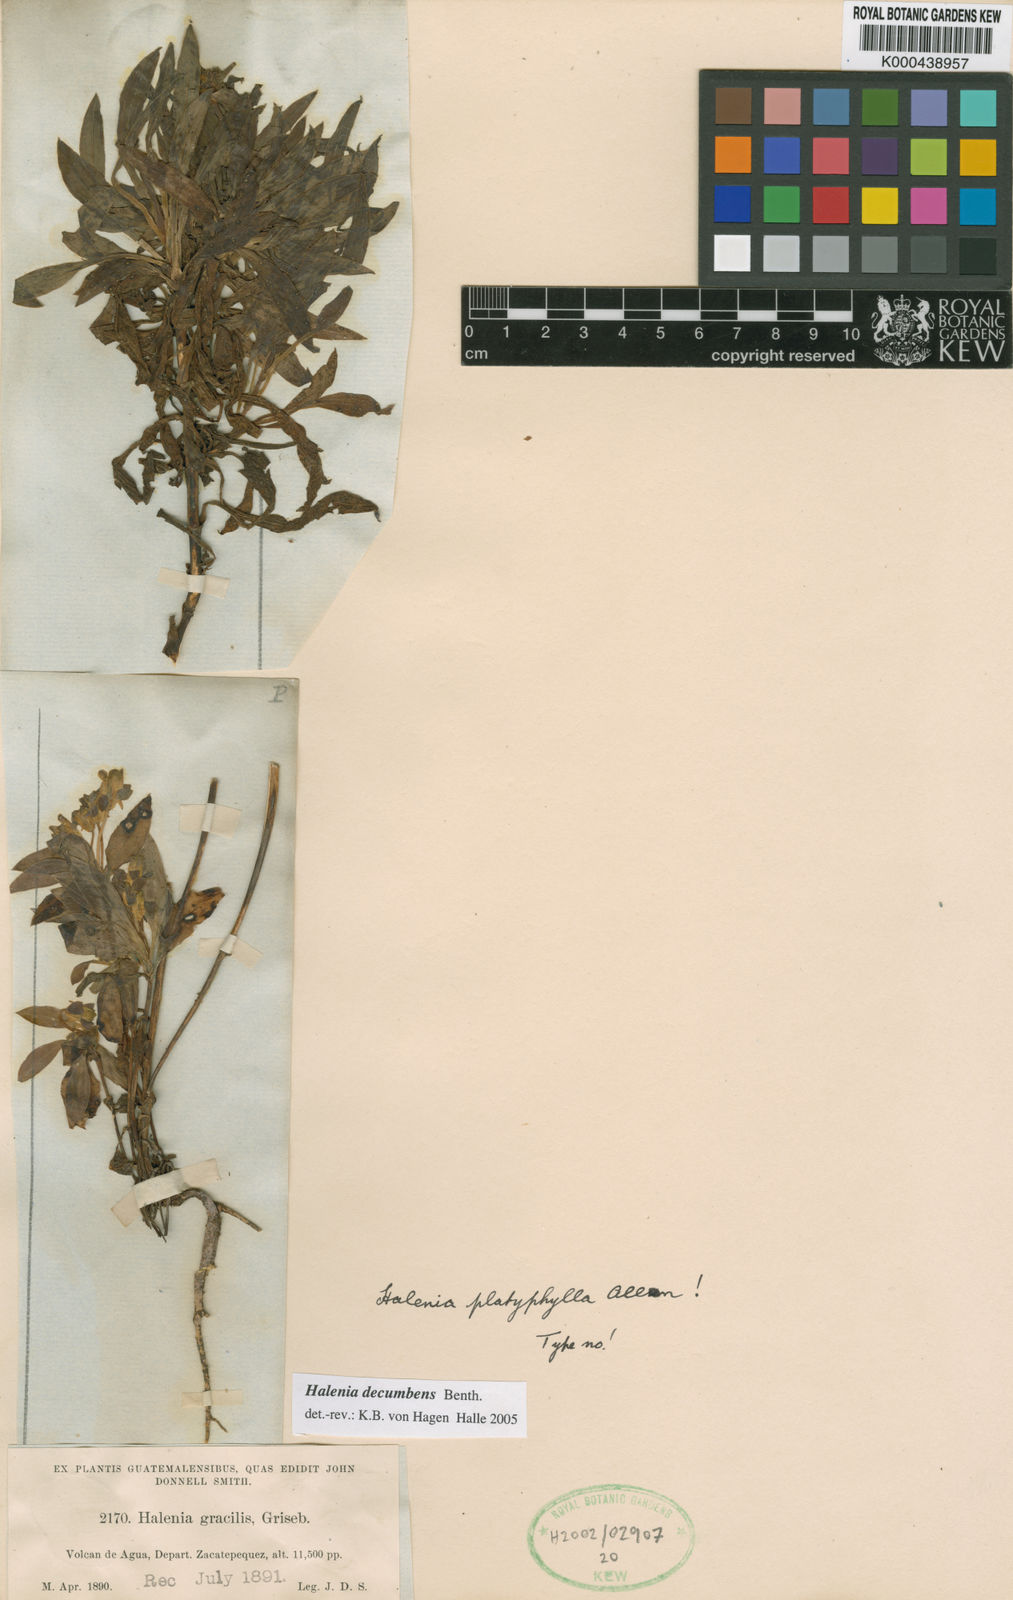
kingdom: Plantae
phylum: Tracheophyta
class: Magnoliopsida
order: Gentianales
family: Gentianaceae
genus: Halenia
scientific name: Halenia decumbens
